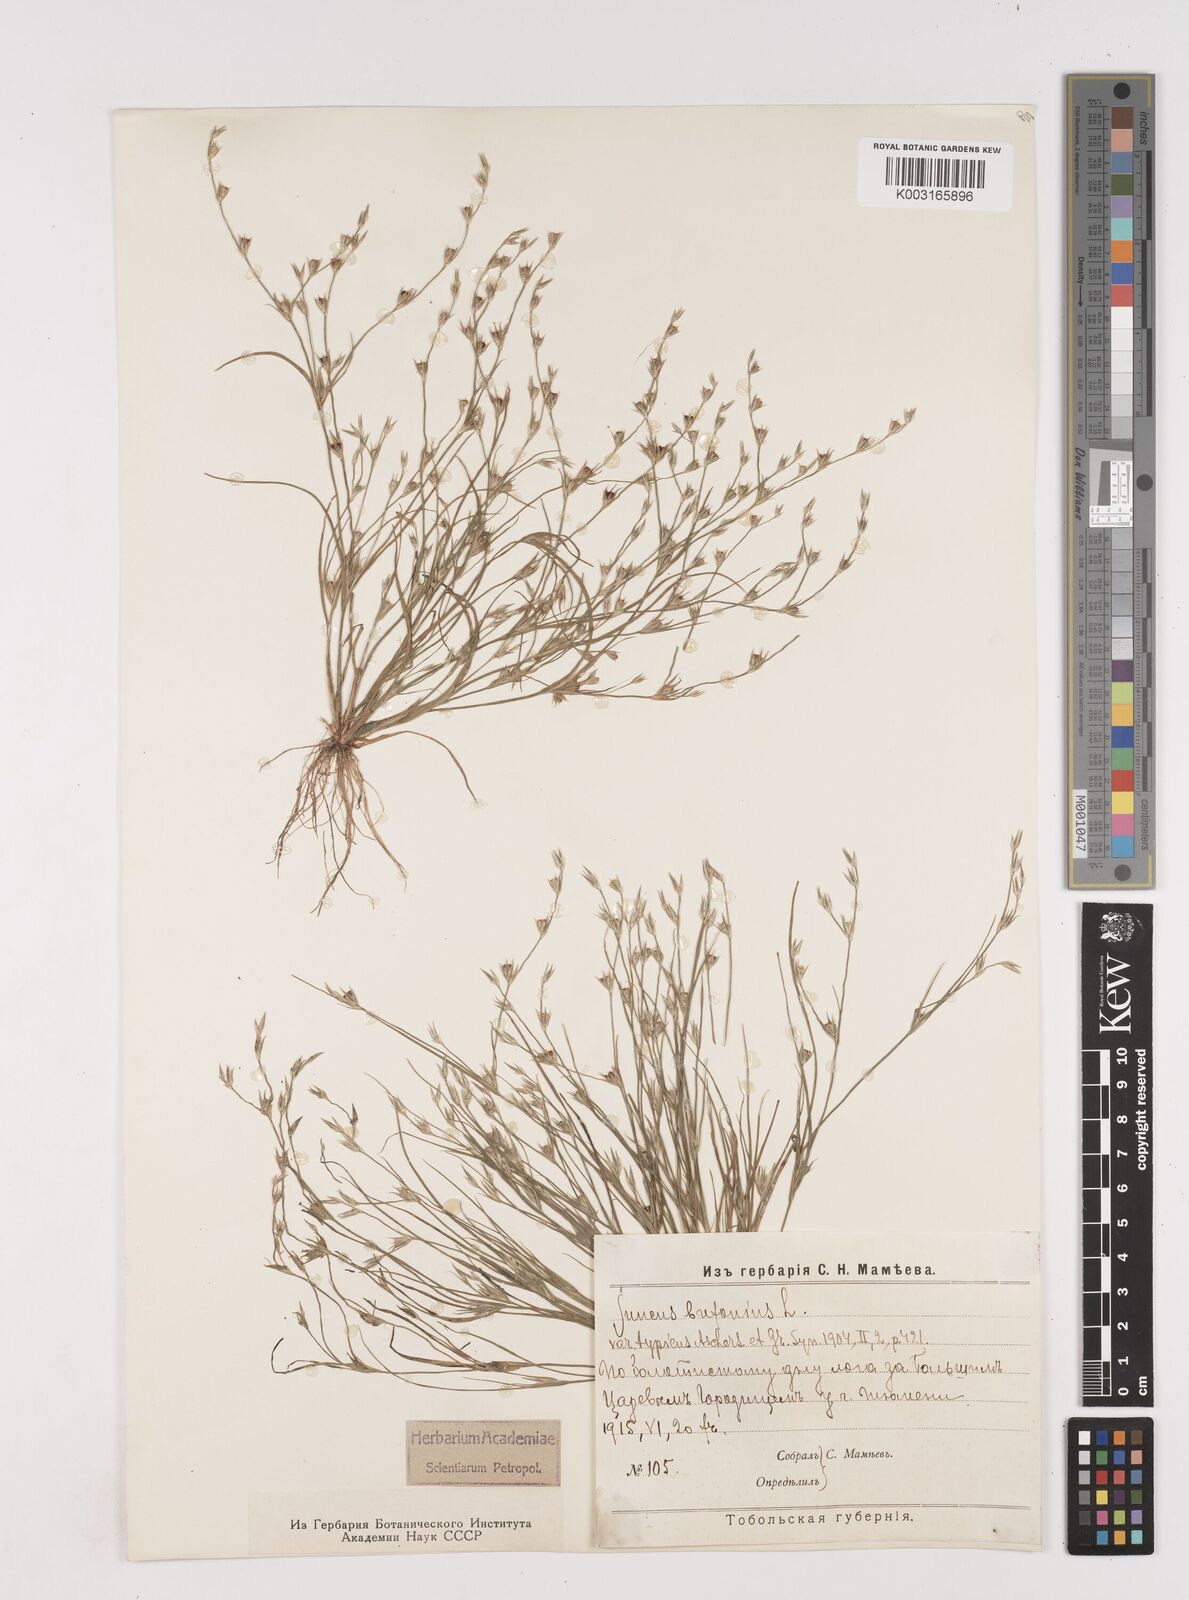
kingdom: Plantae
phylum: Tracheophyta
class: Liliopsida
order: Poales
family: Juncaceae
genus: Juncus
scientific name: Juncus bufonius
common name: Toad rush
